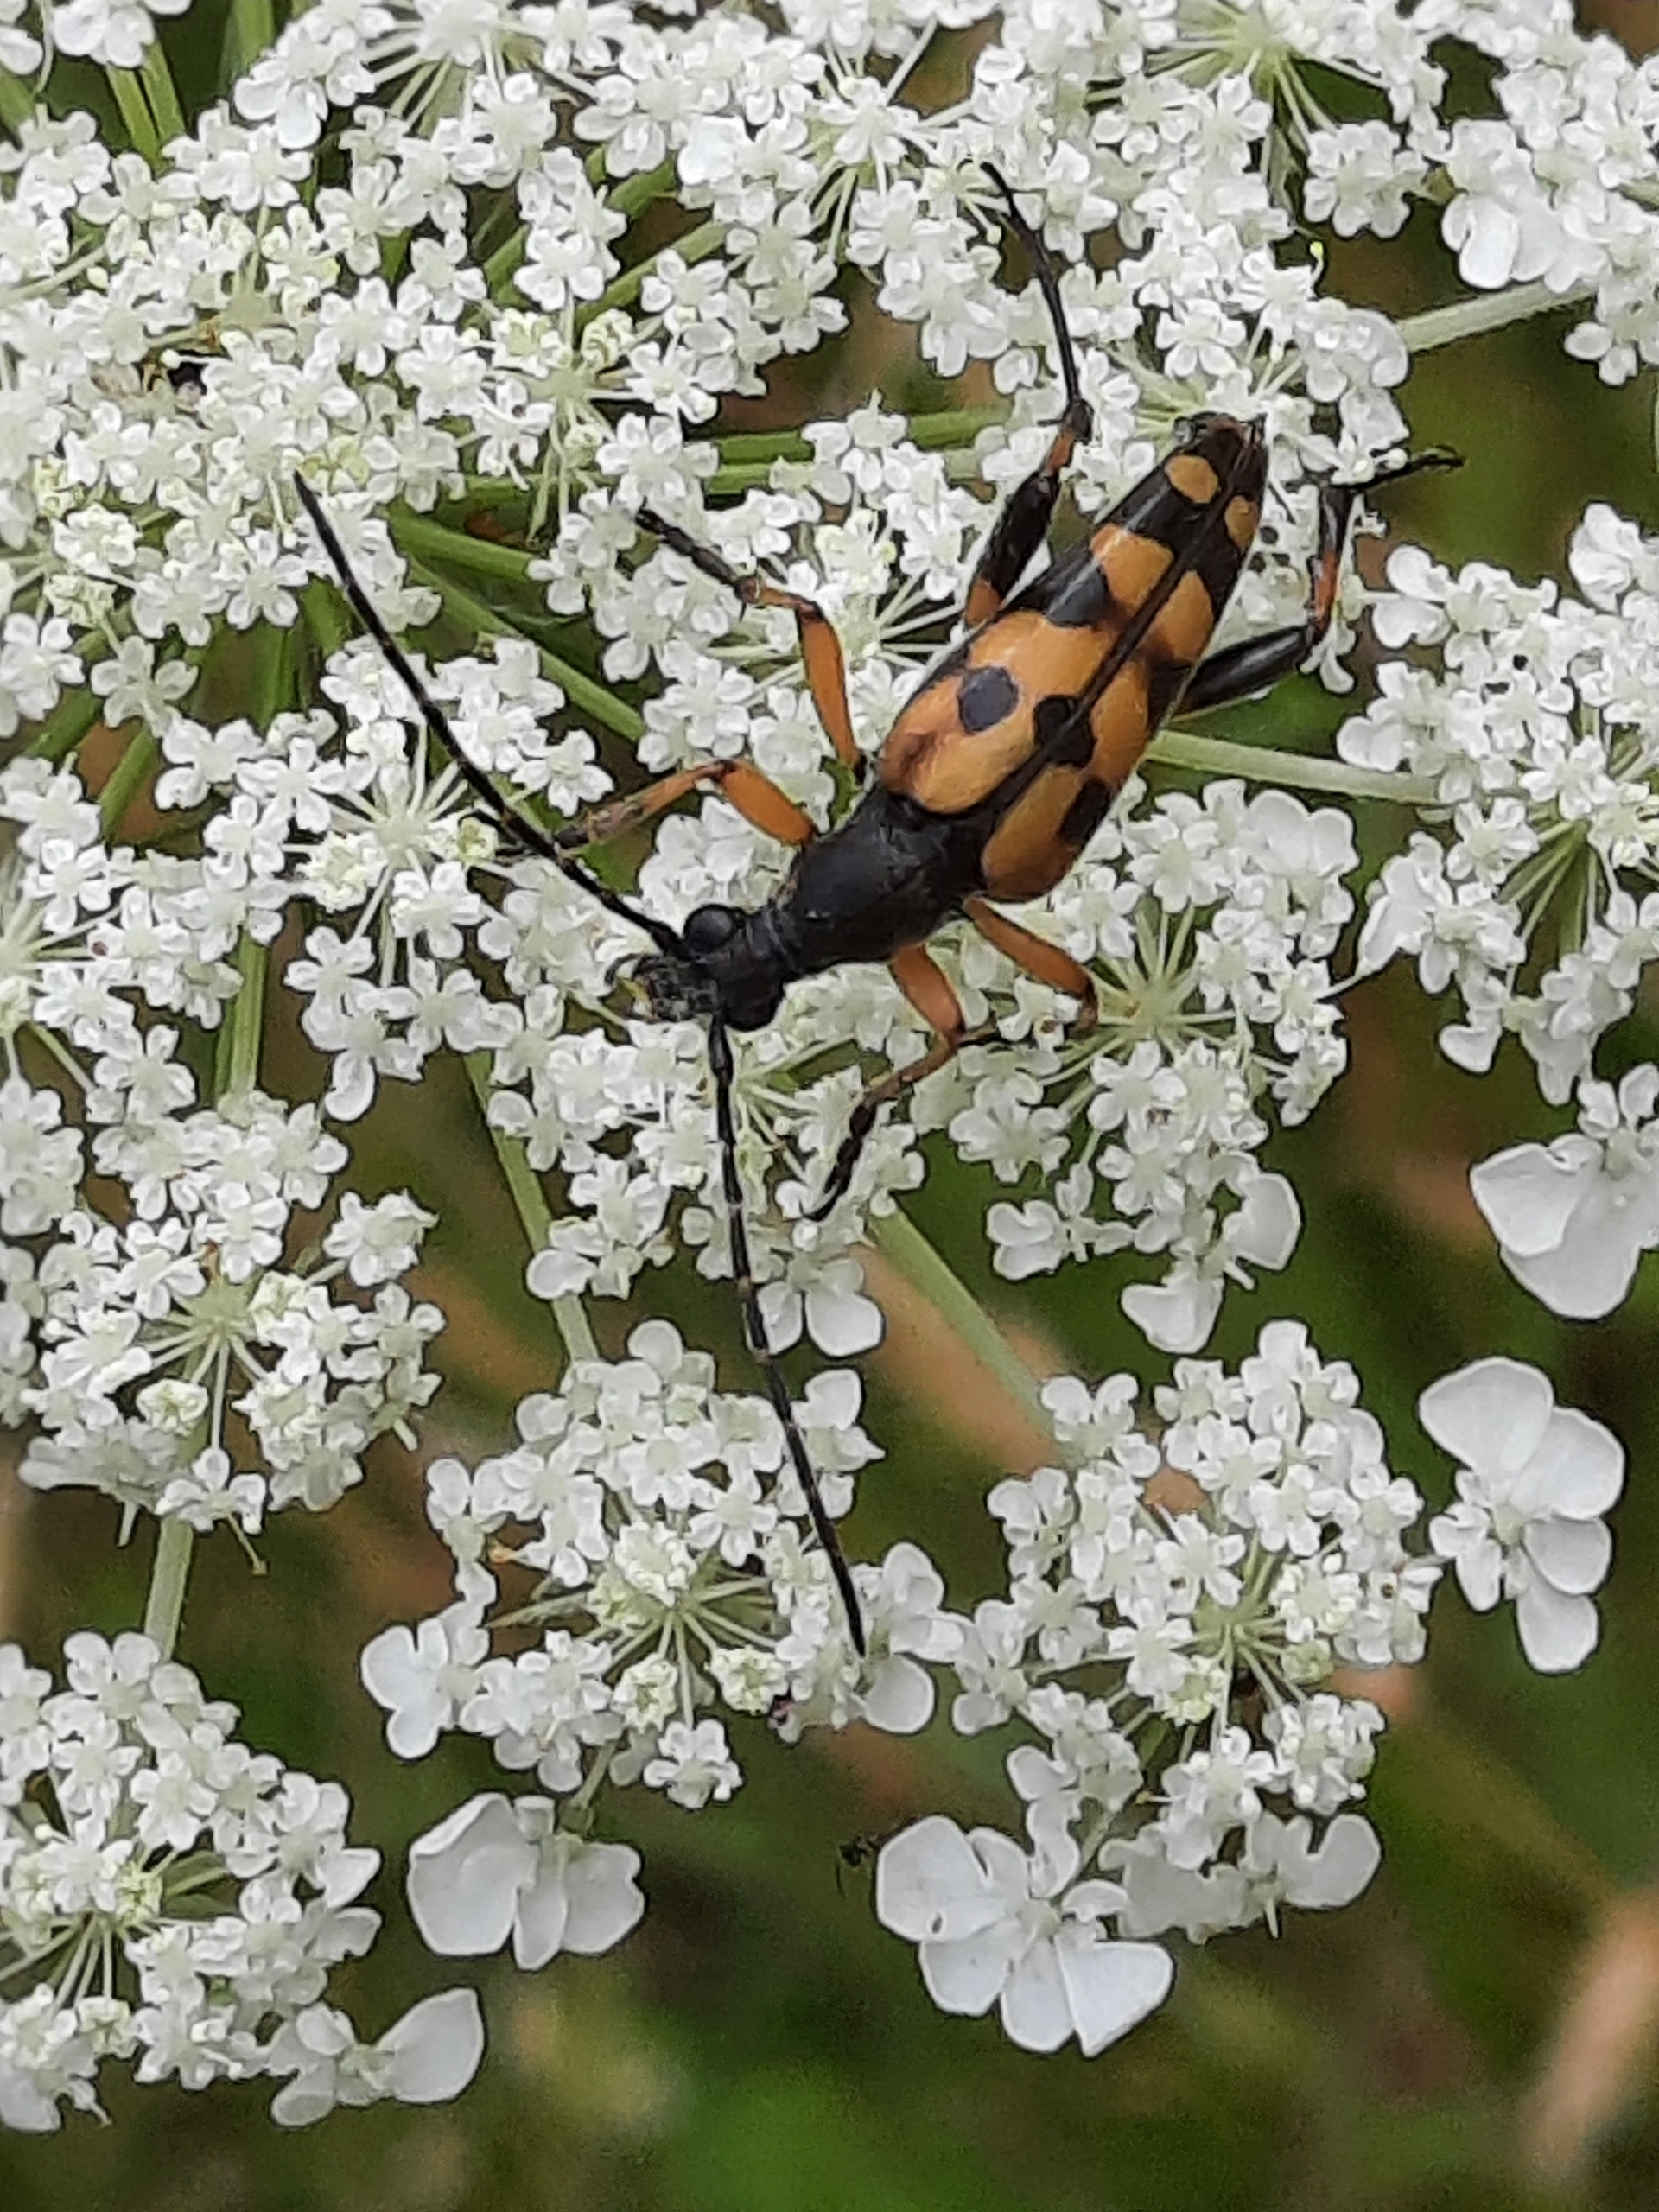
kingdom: Animalia
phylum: Arthropoda
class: Insecta
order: Coleoptera
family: Cerambycidae
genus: Rutpela
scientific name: Rutpela maculata
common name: Sydlig blomsterbuk
